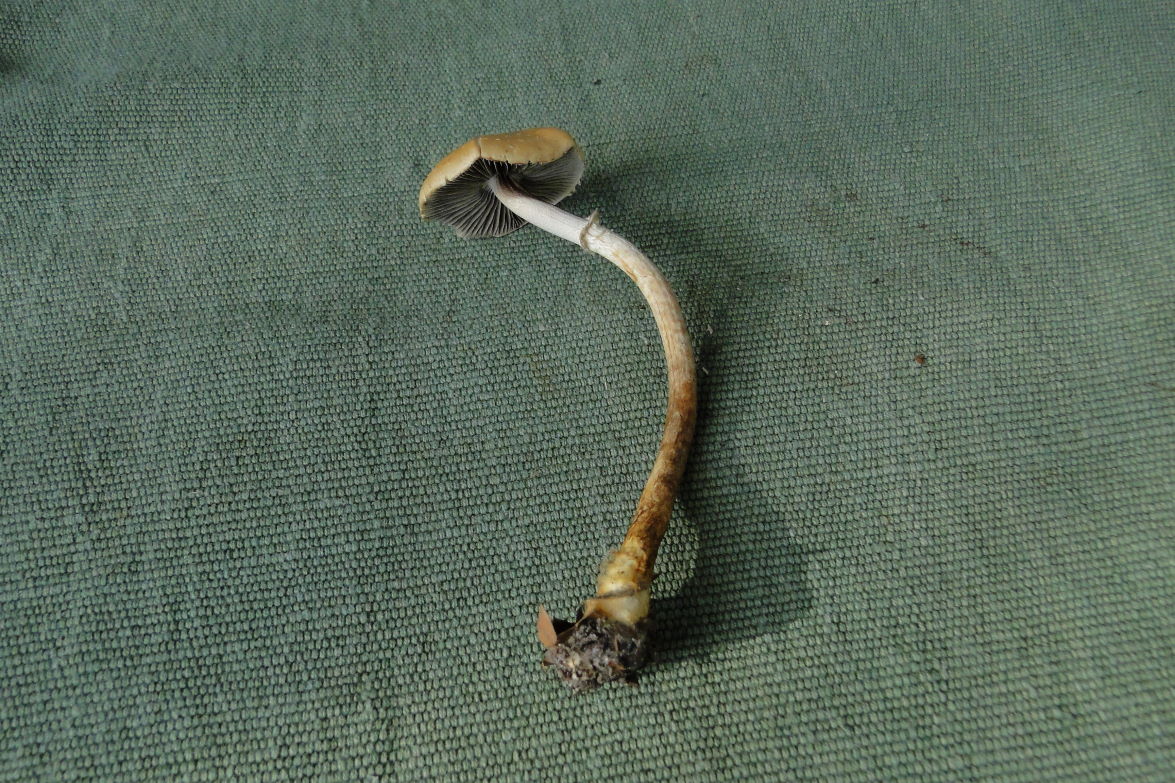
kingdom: Fungi
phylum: Basidiomycota
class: Agaricomycetes
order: Agaricales
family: Strophariaceae
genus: Leratiomyces
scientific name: Leratiomyces squamosus
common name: skællet bredblad
